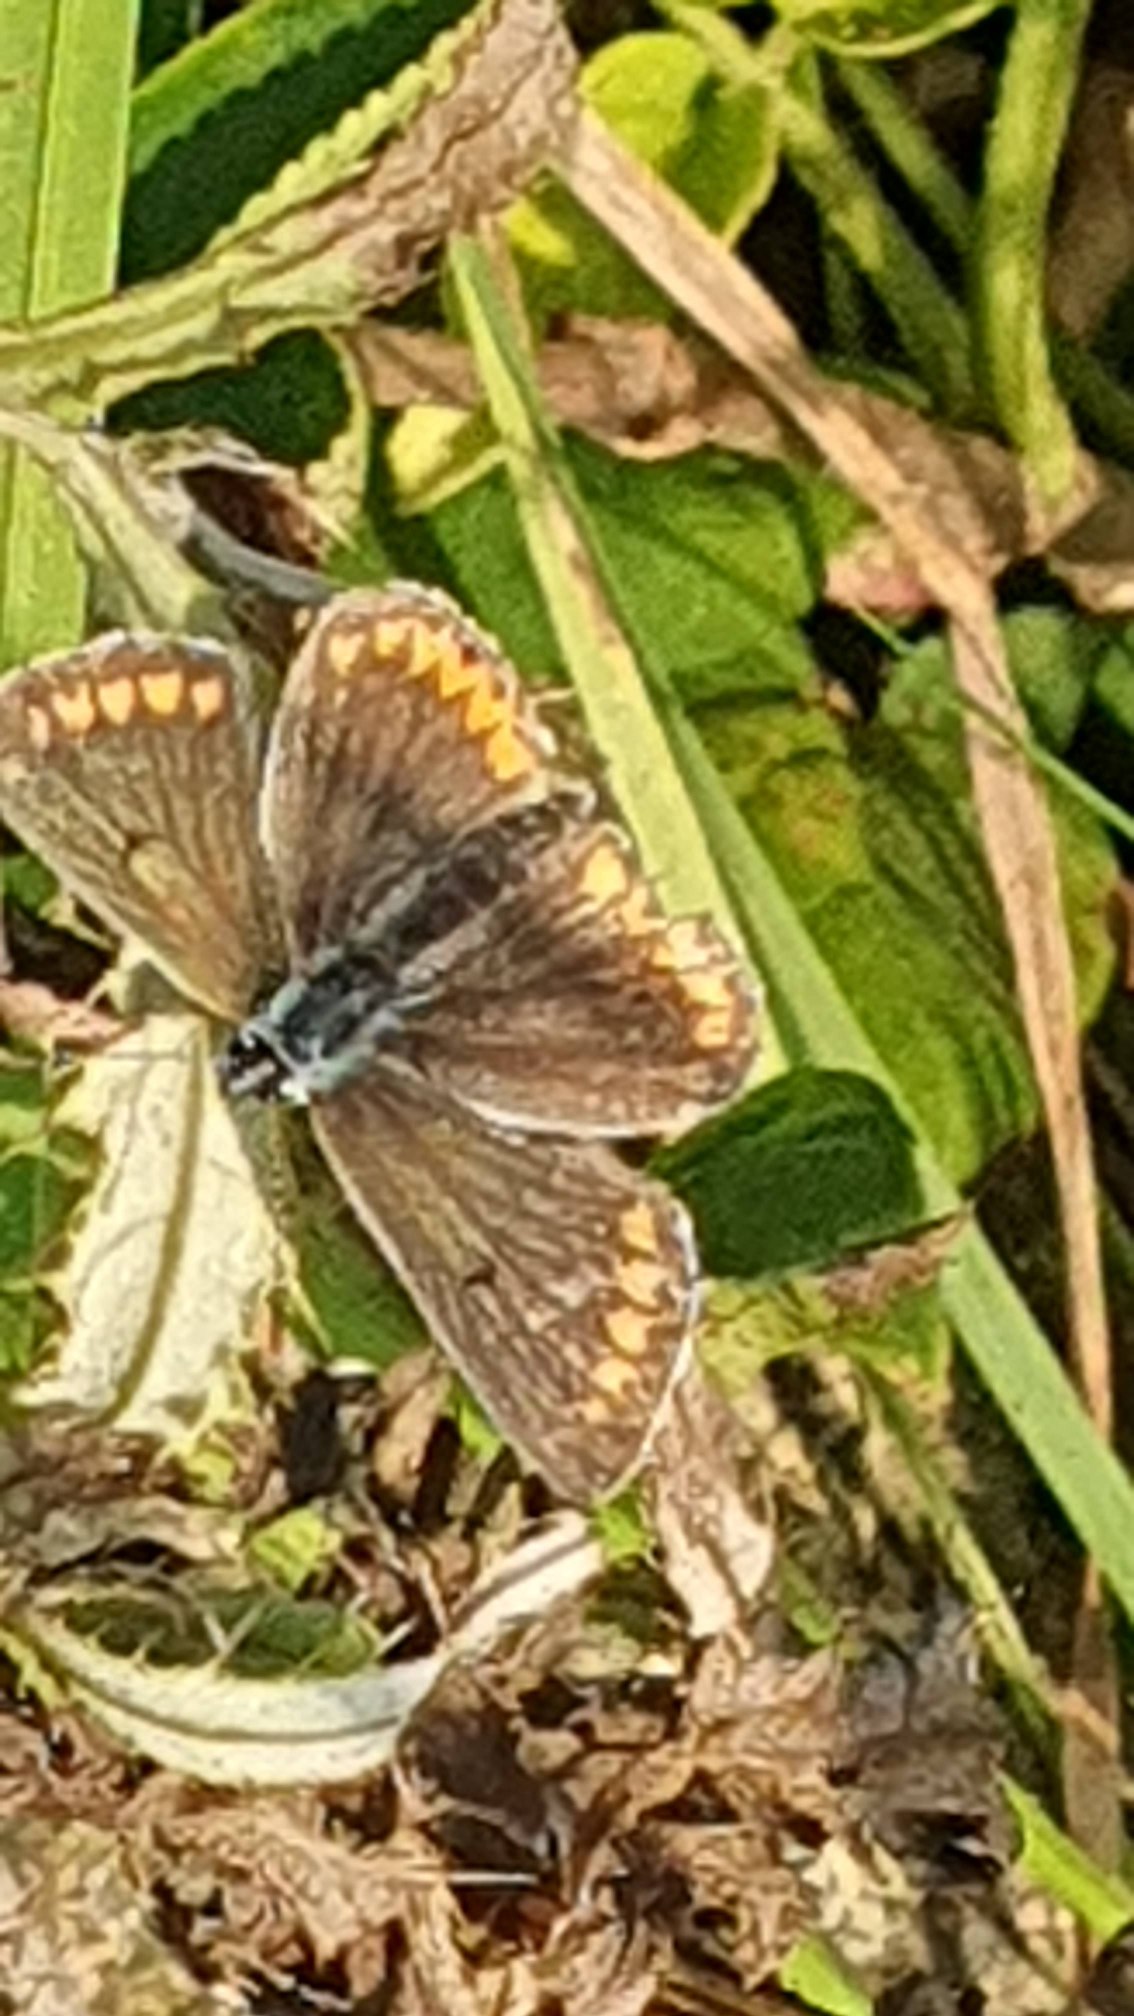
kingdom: Animalia
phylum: Arthropoda
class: Insecta
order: Lepidoptera
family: Lycaenidae
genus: Aricia
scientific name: Aricia agestis
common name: Rødplettet blåfugl
